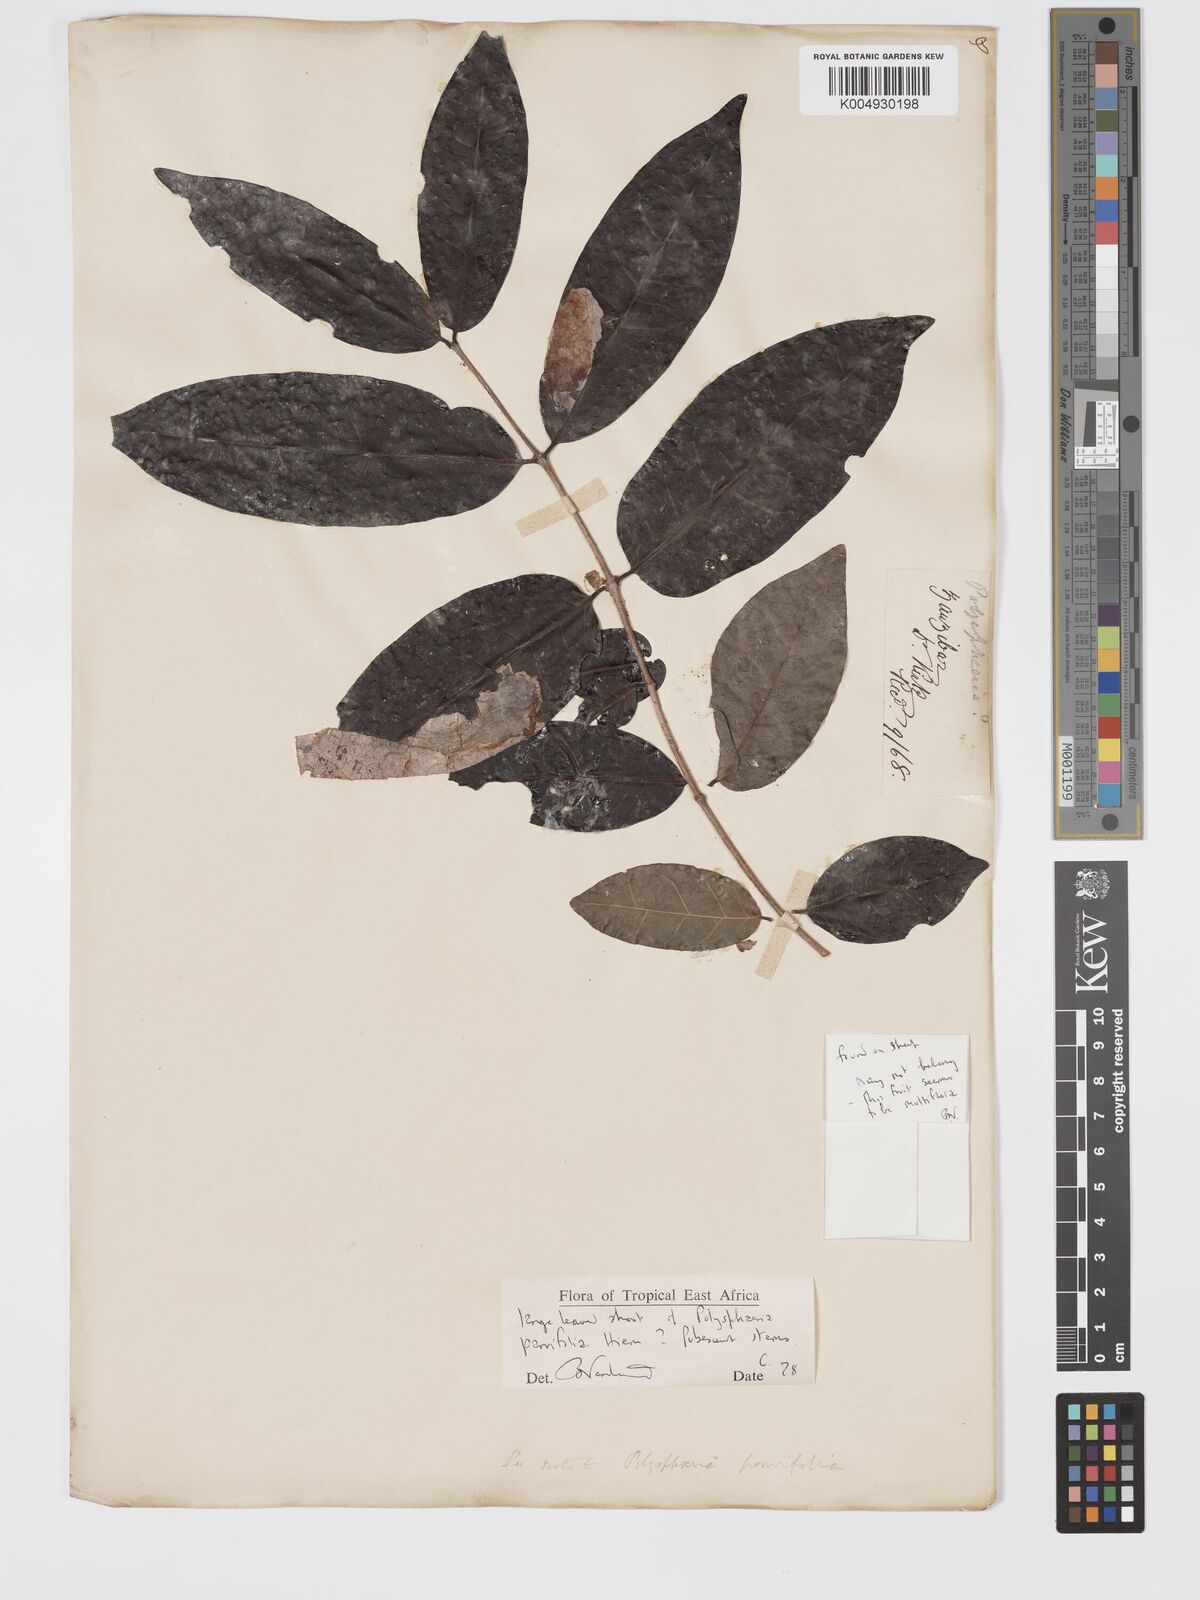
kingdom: Plantae
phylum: Tracheophyta
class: Magnoliopsida
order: Gentianales
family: Rubiaceae
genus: Polysphaeria
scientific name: Polysphaeria parvifolia
